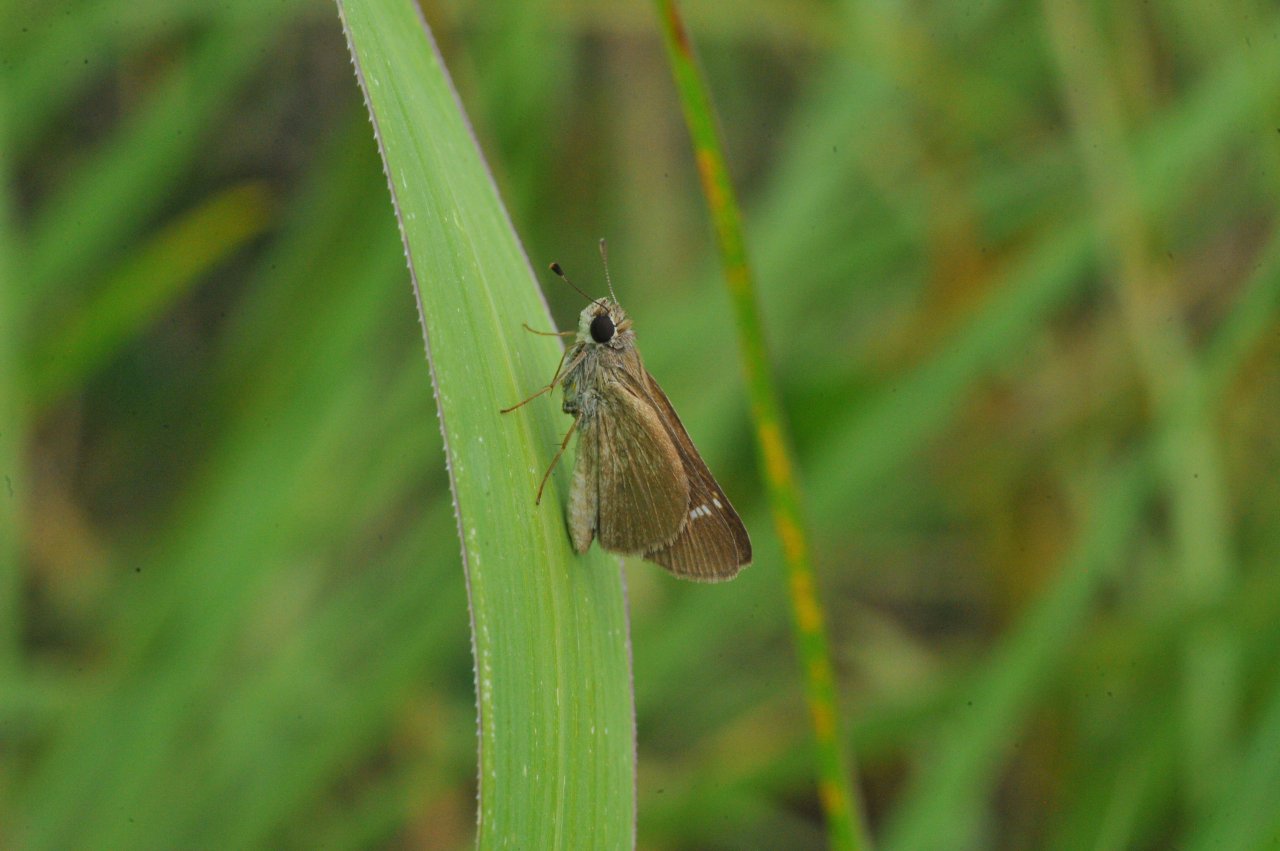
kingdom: Animalia
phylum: Arthropoda
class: Insecta
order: Lepidoptera
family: Hesperiidae
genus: Lerodea
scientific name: Lerodea eufala
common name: Eufala Skipper
